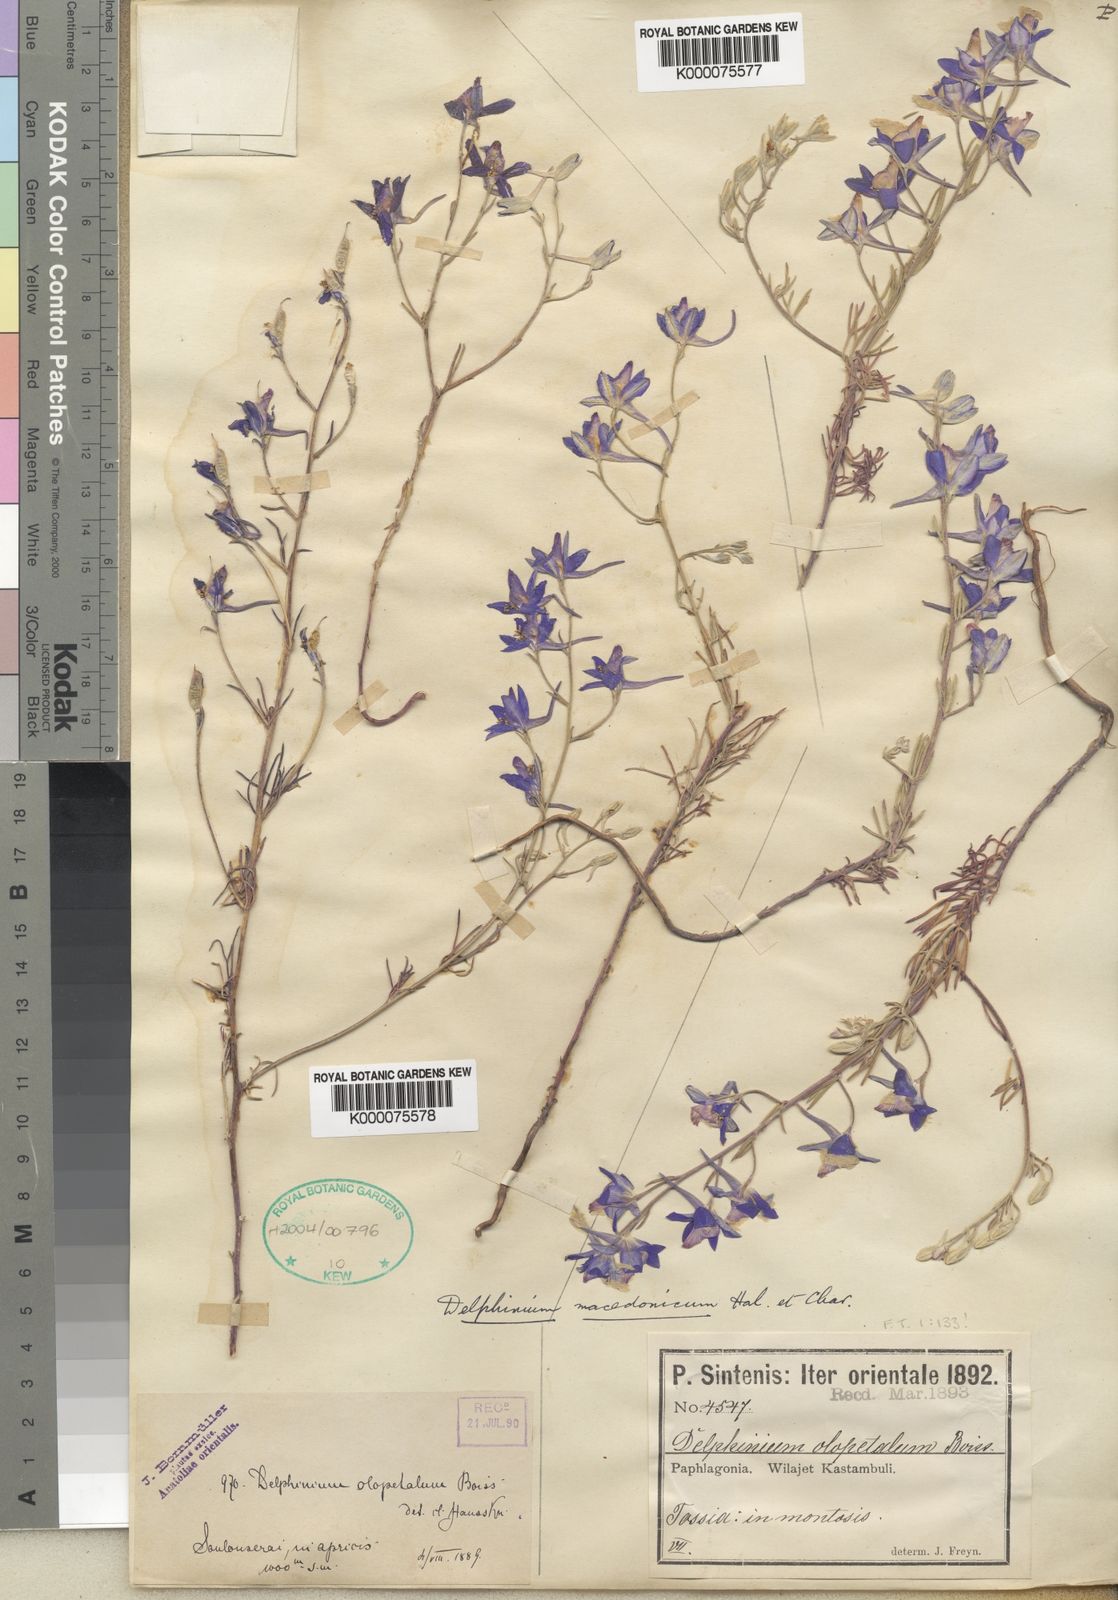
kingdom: Plantae
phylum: Tracheophyta
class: Magnoliopsida
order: Ranunculales
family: Ranunculaceae
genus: Delphinium
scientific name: Delphinium hellesponticum
